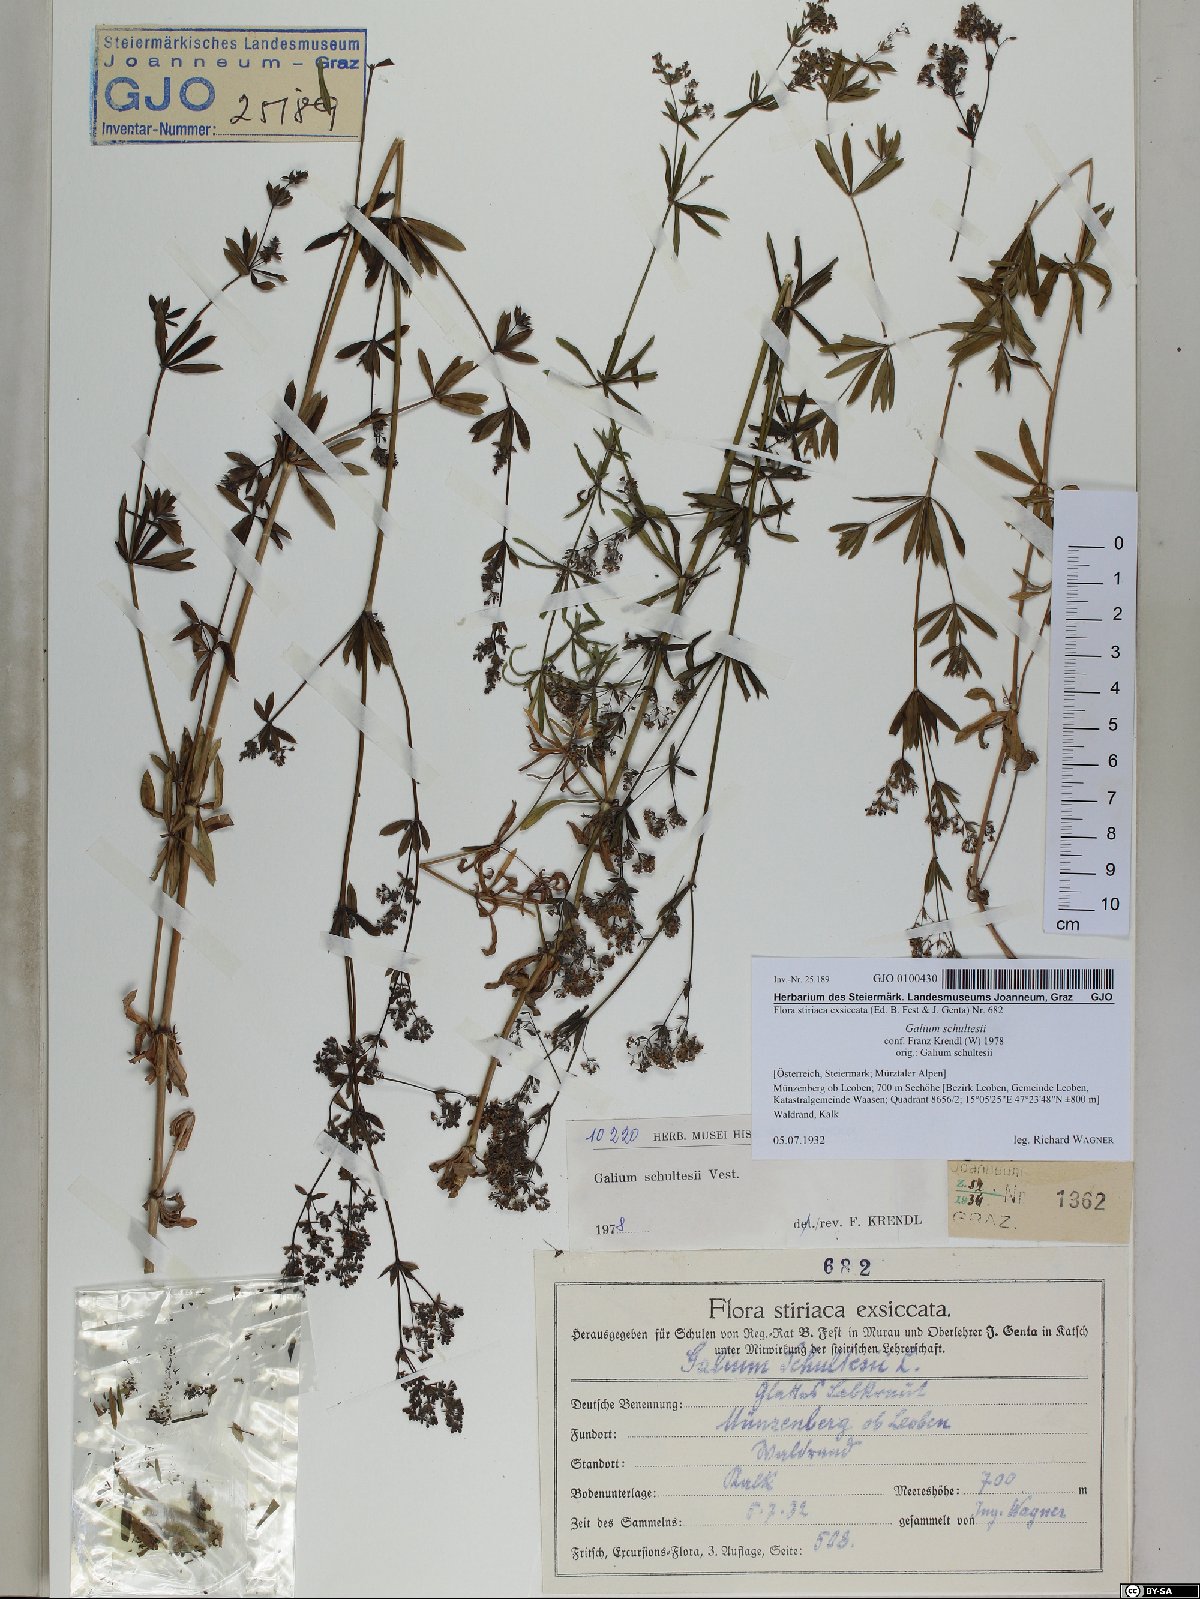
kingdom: Plantae
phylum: Tracheophyta
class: Magnoliopsida
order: Gentianales
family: Rubiaceae
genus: Galium
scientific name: Galium intermedium
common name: Bedstraw
